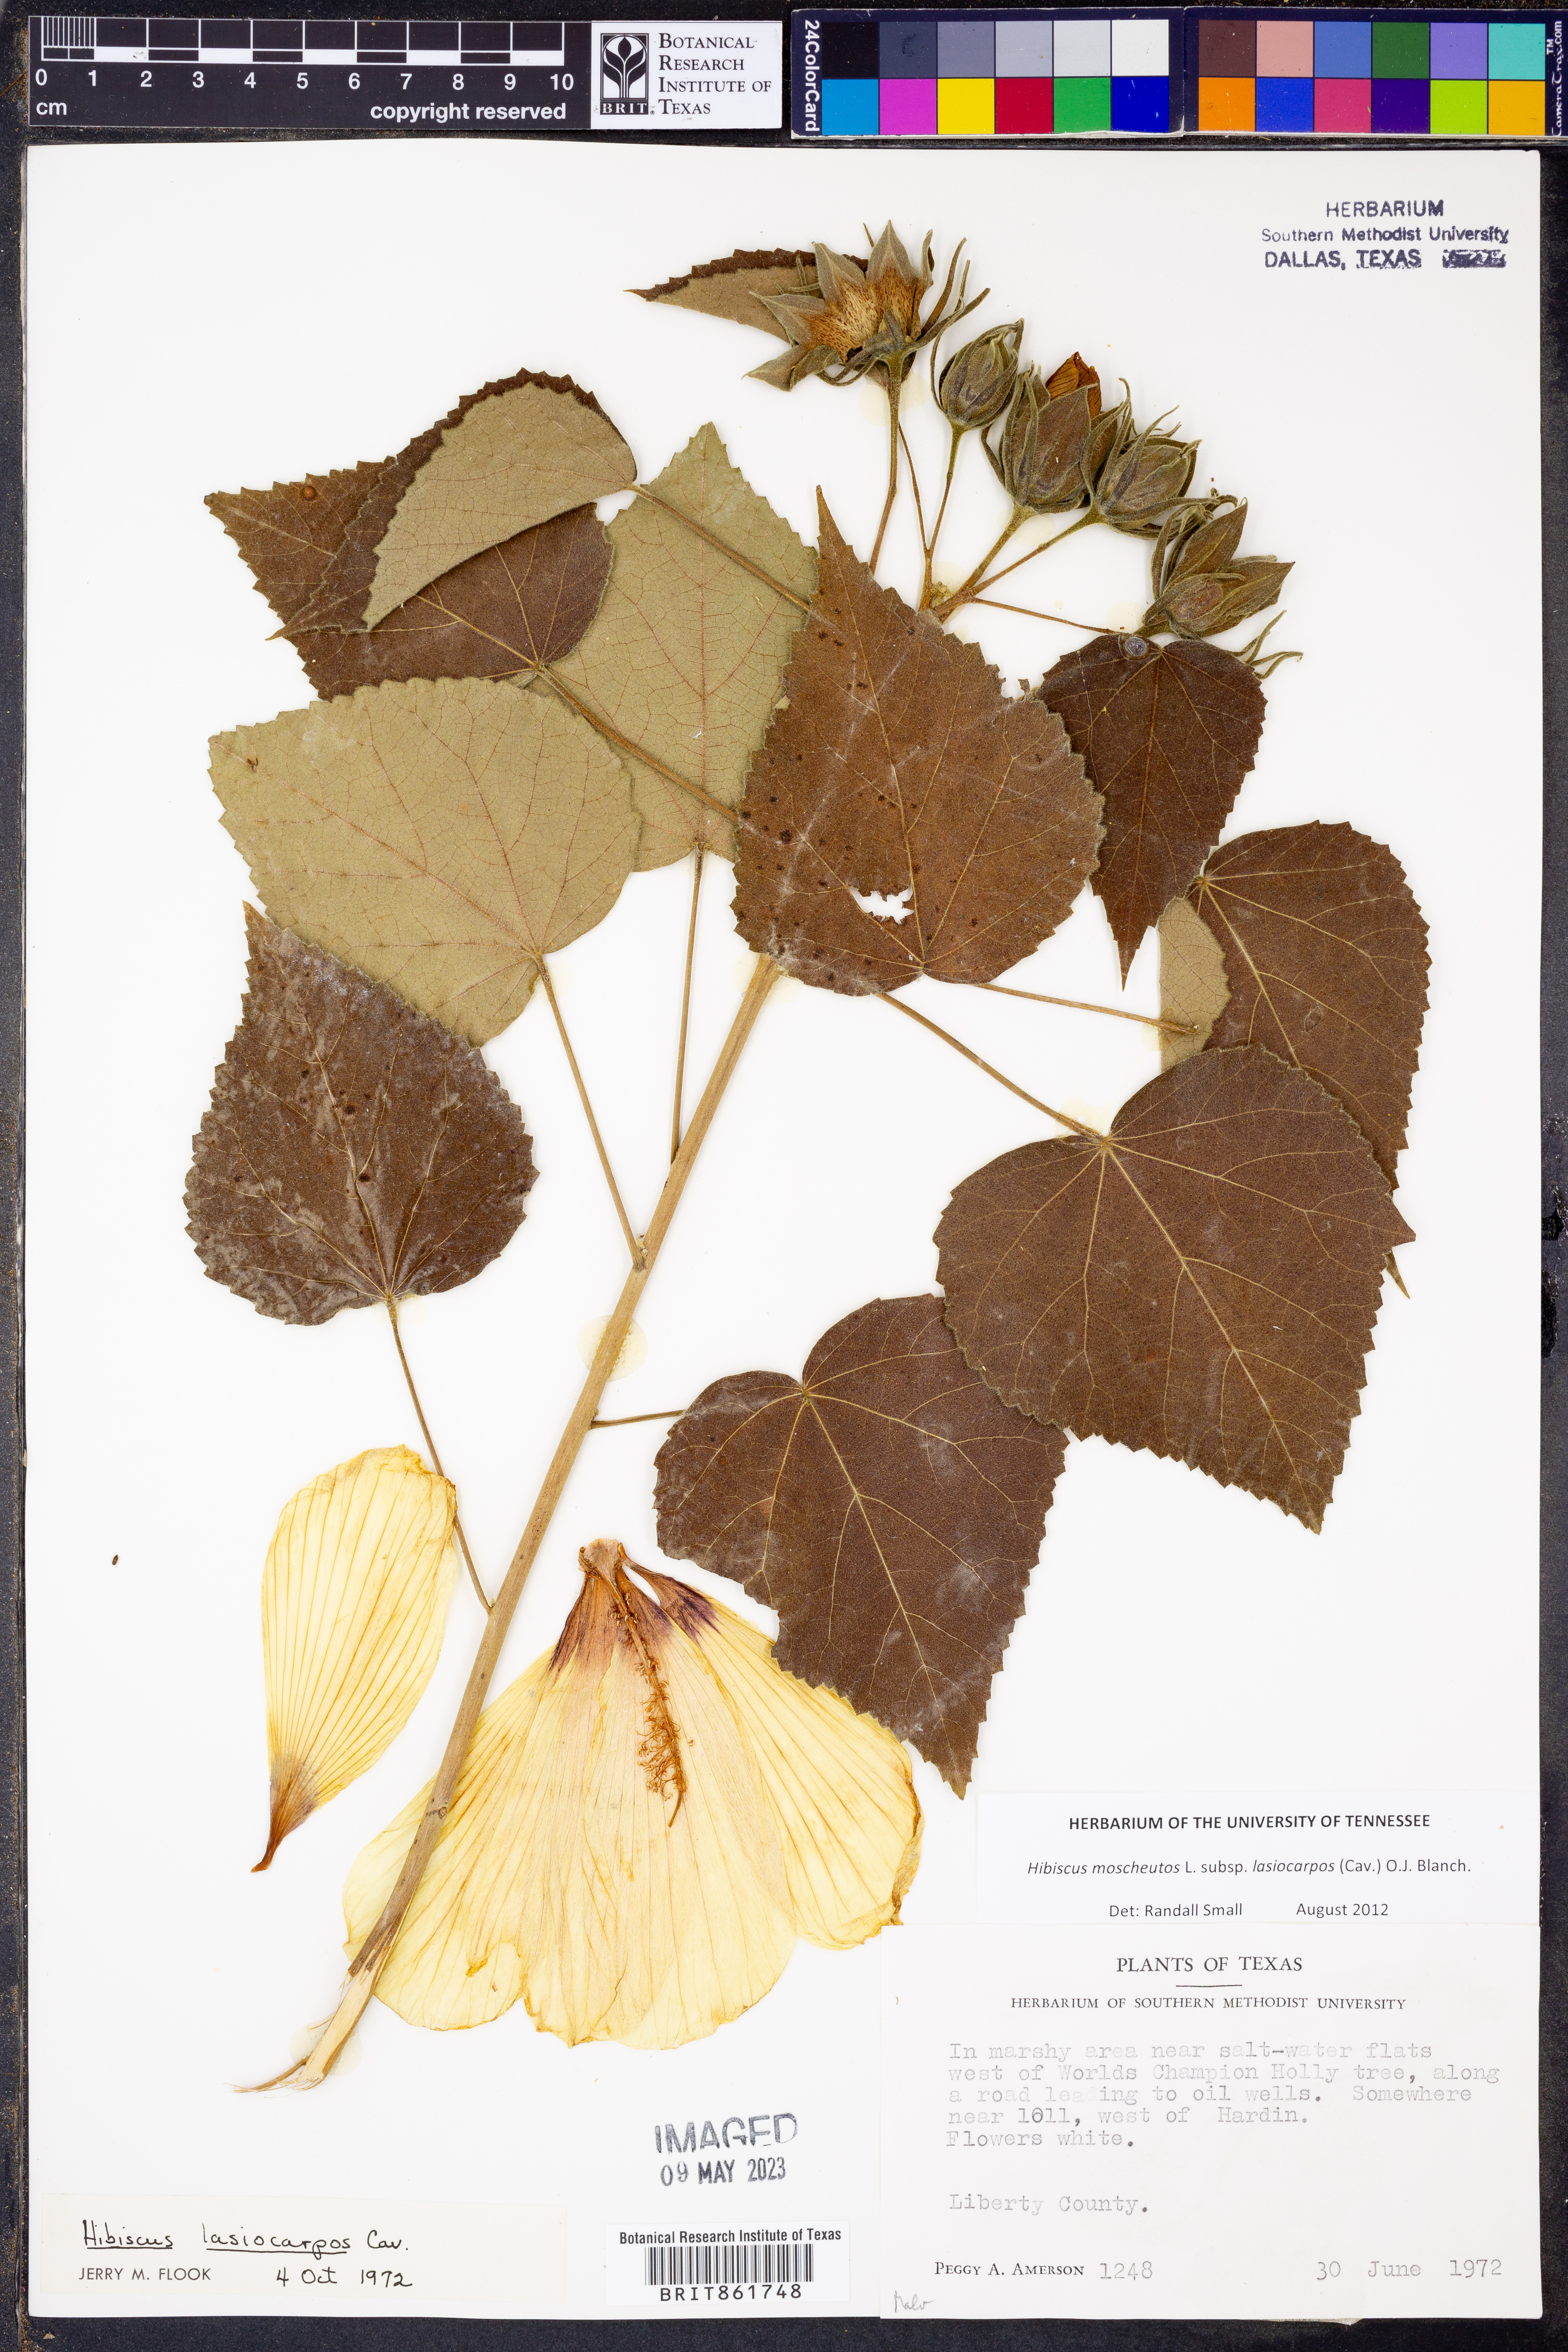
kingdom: Plantae
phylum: Tracheophyta
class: Magnoliopsida
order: Malvales
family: Malvaceae
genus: Hibiscus
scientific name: Hibiscus moscheutos
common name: Common rose-mallow
